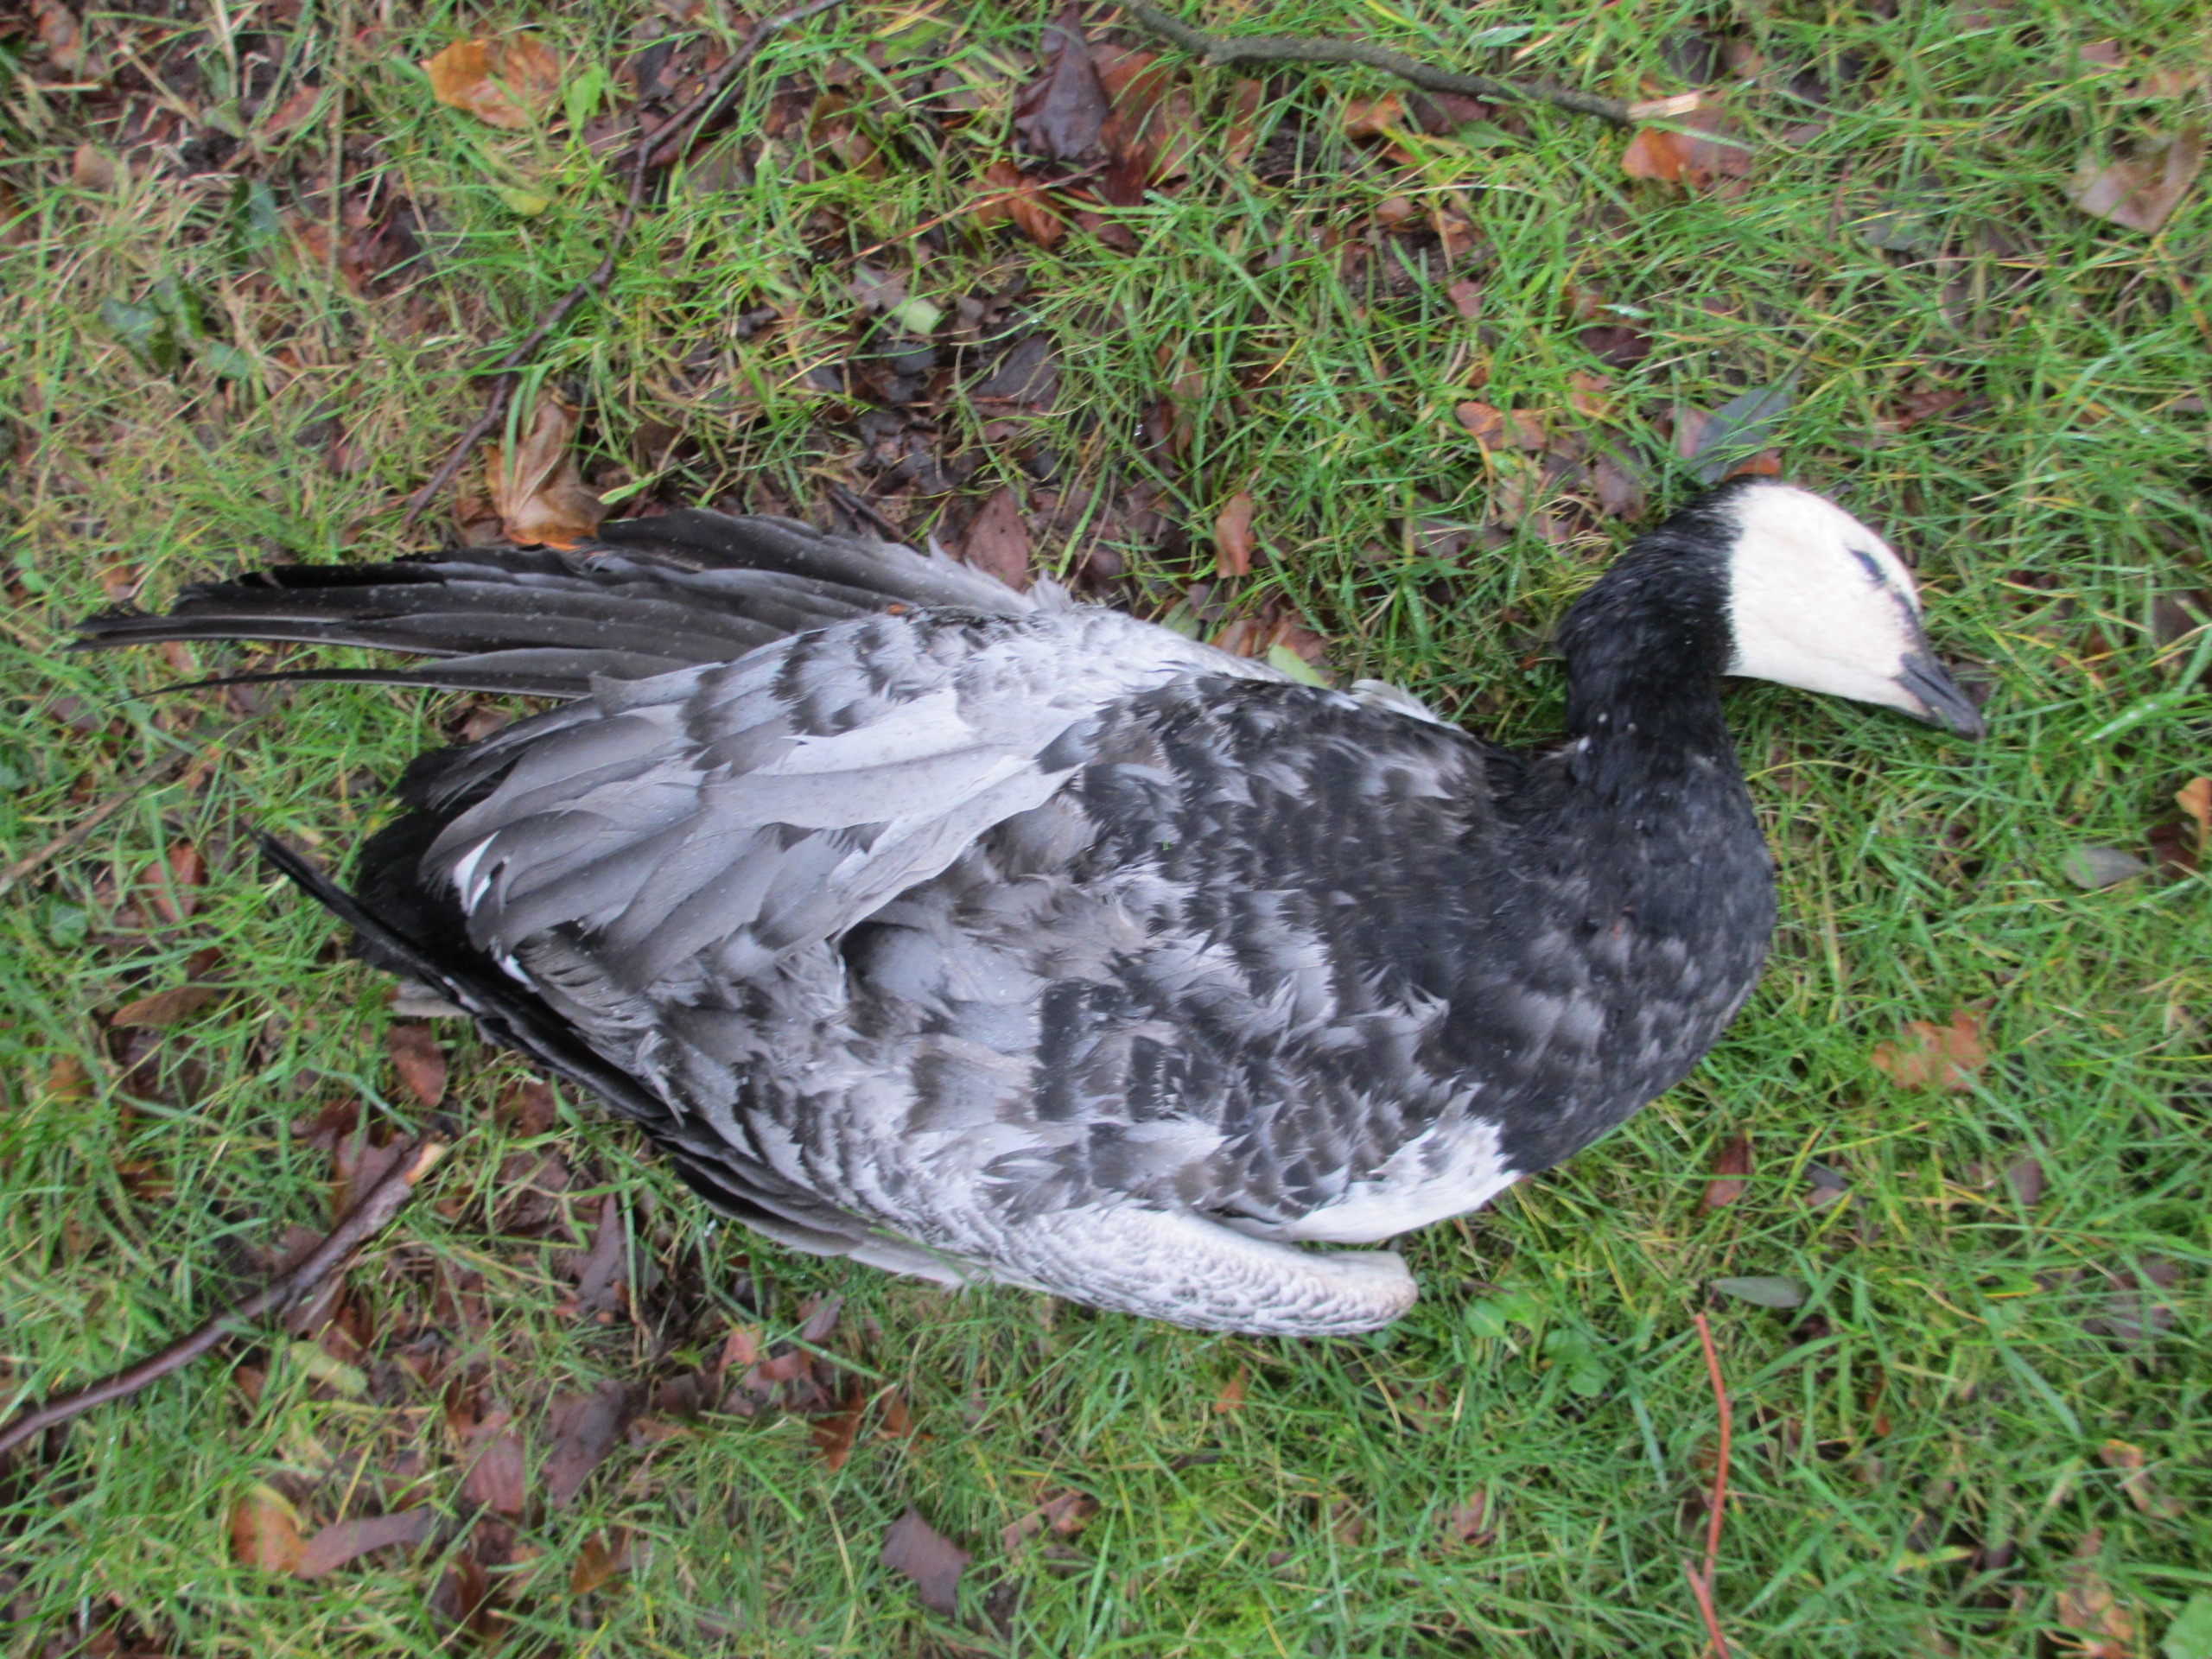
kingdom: Animalia
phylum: Chordata
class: Aves
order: Anseriformes
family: Anatidae
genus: Branta
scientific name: Branta leucopsis
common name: Bramgås
